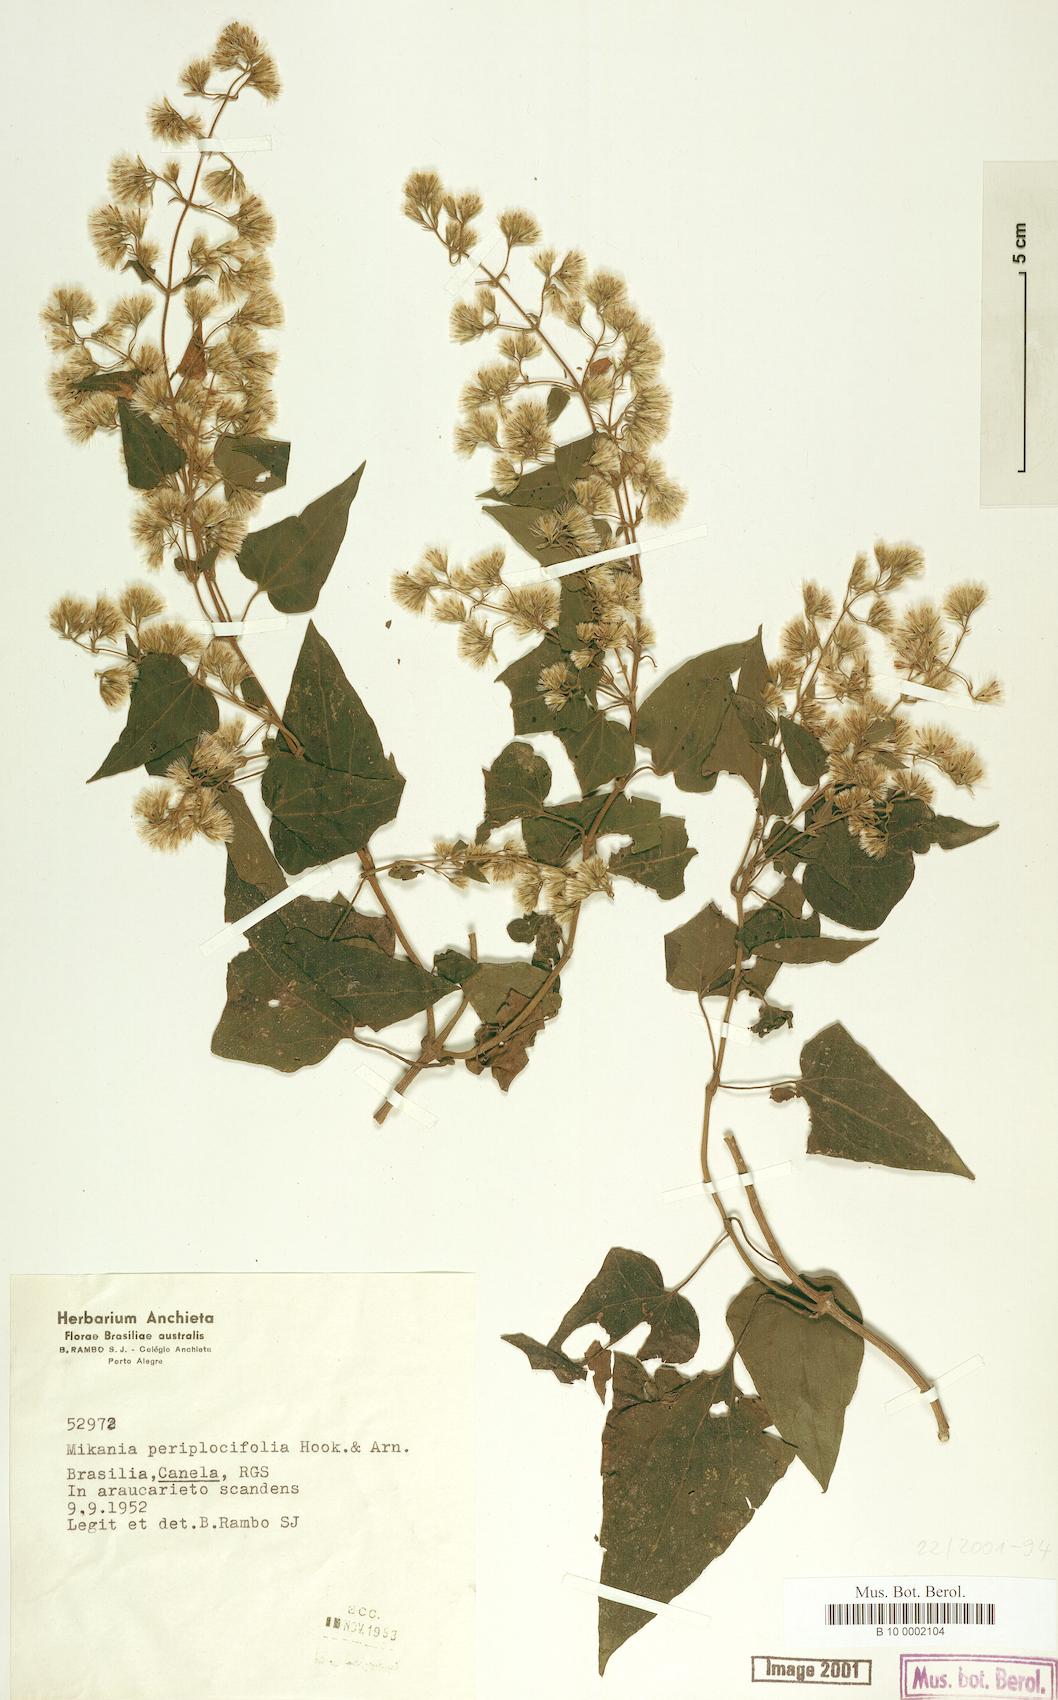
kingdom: Plantae
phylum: Tracheophyta
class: Magnoliopsida
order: Asterales
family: Asteraceae
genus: Mikania
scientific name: Mikania periplocifolia
